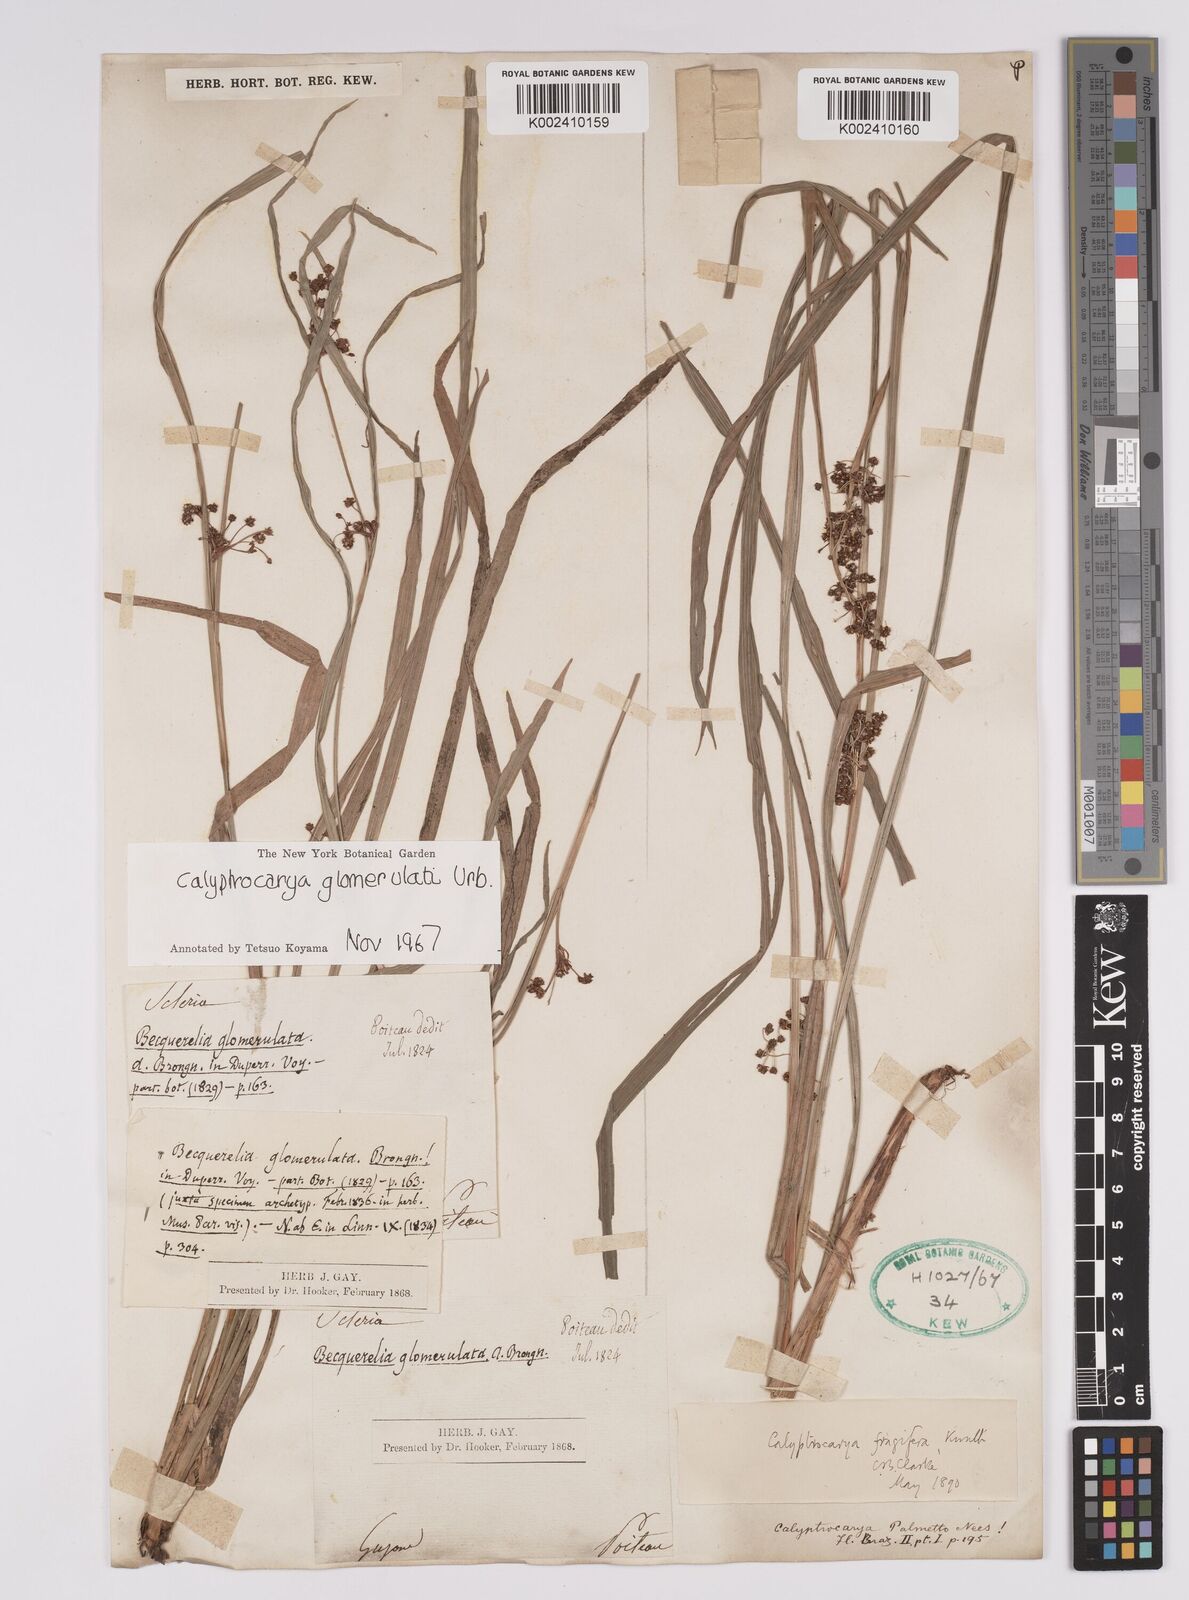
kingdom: Plantae
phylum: Tracheophyta
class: Liliopsida
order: Poales
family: Cyperaceae
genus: Calyptrocarya
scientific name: Calyptrocarya glomerulata
